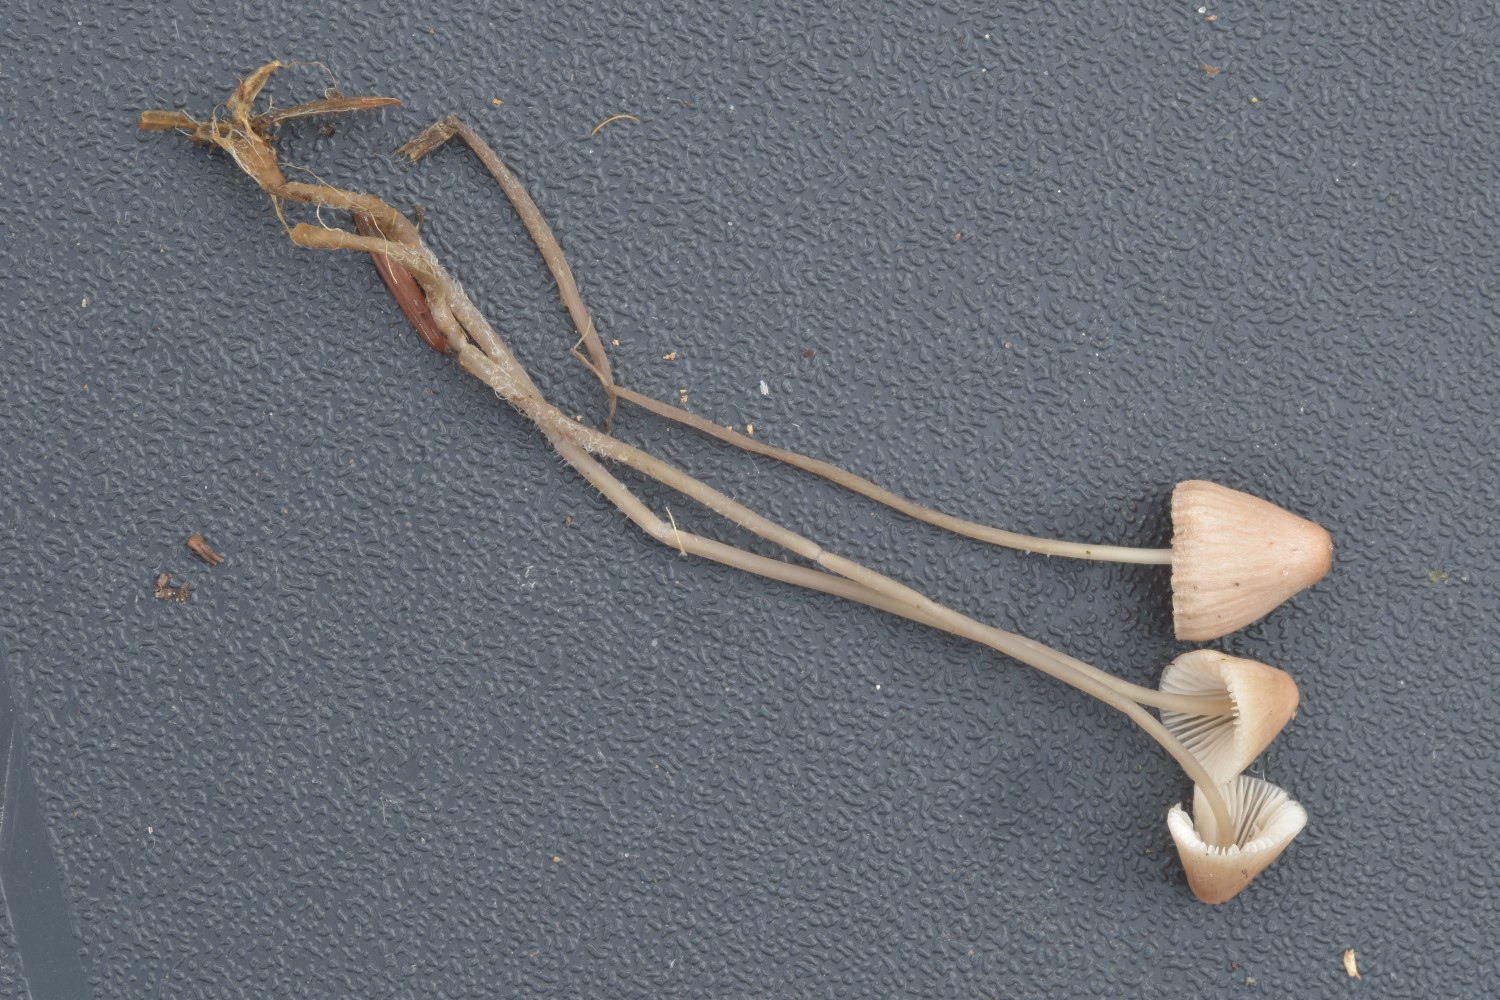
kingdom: Fungi
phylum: Basidiomycota
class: Agaricomycetes
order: Agaricales
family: Mycenaceae
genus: Mycena
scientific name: Mycena filopes
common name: jod-huesvamp
